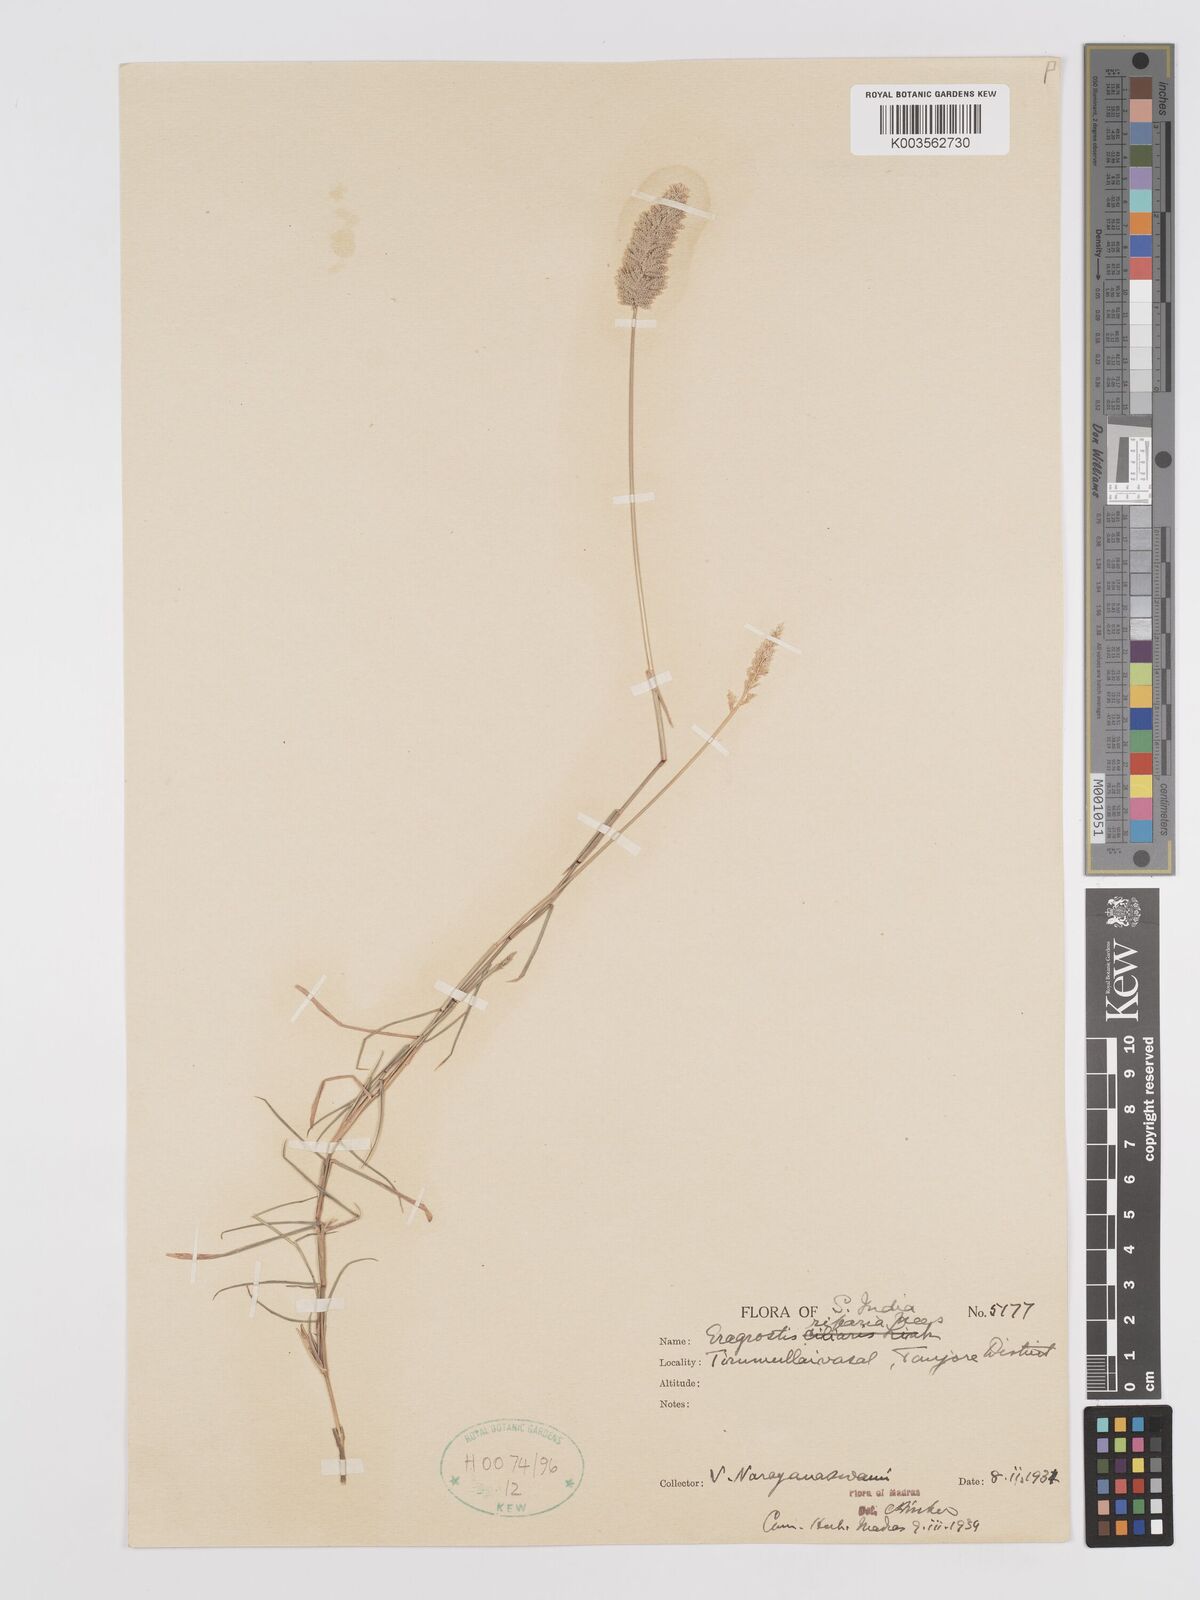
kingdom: Plantae
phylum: Tracheophyta
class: Liliopsida
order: Poales
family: Poaceae
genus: Eragrostis
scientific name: Eragrostis riparia
